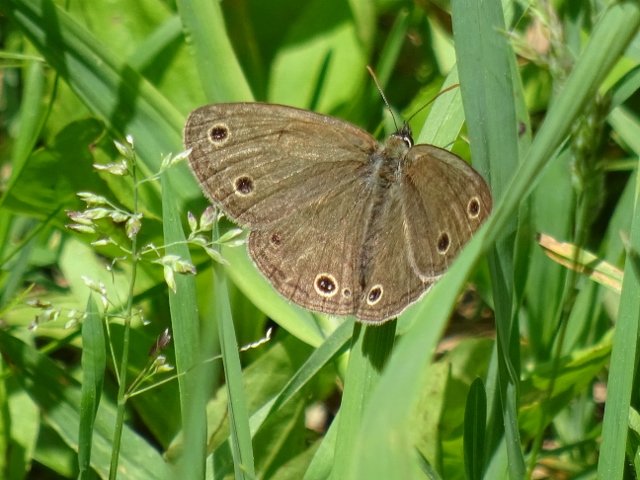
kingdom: Animalia
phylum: Arthropoda
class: Insecta
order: Lepidoptera
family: Nymphalidae
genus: Euptychia
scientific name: Euptychia cymela
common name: Little Wood Satyr
